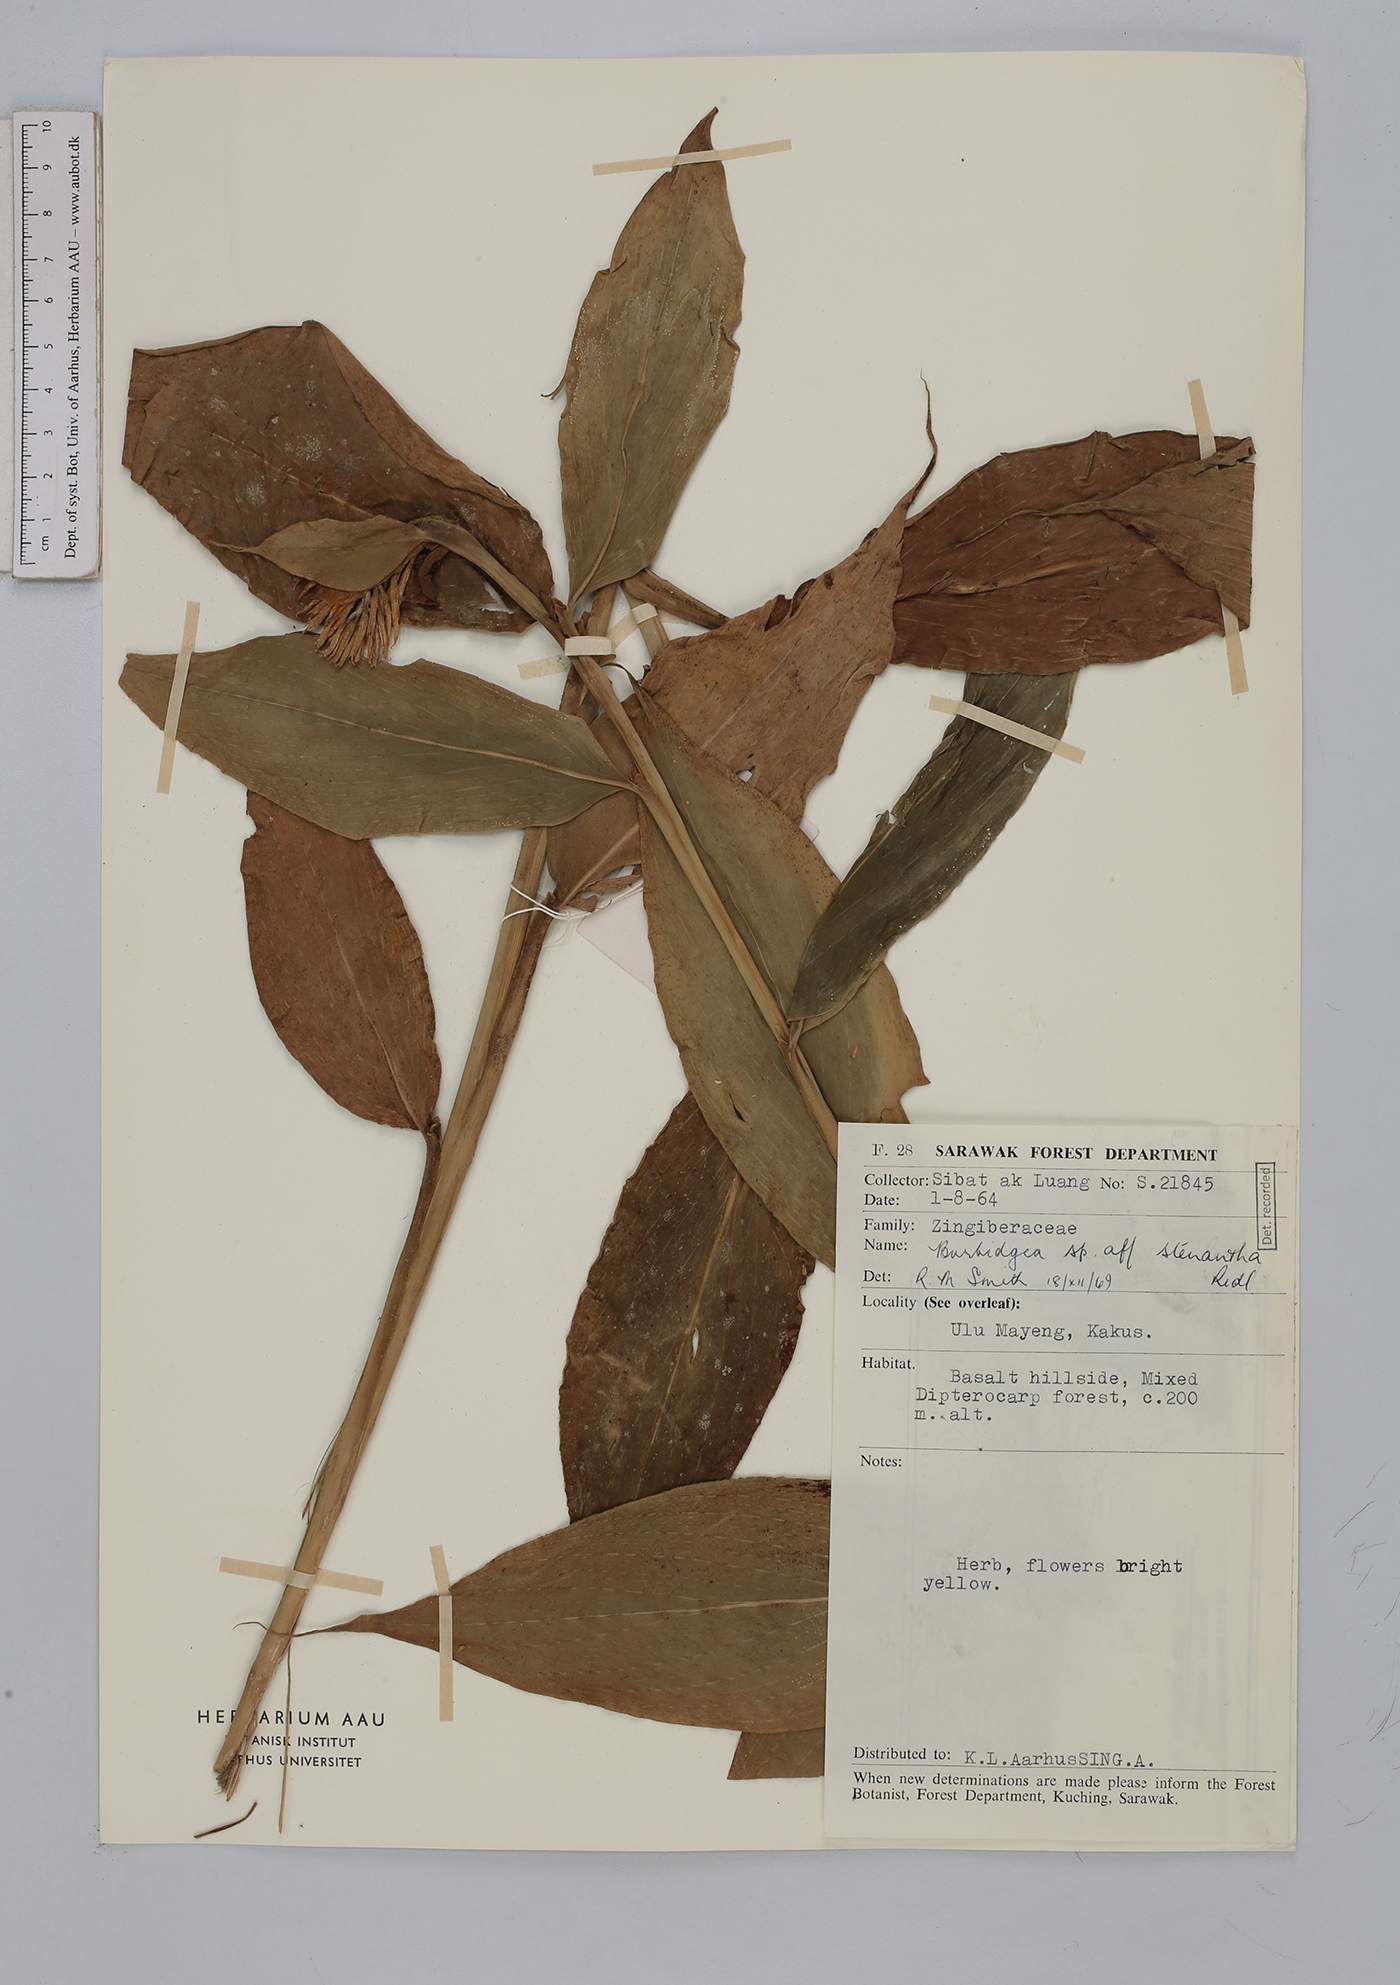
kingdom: Plantae
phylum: Tracheophyta
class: Liliopsida
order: Zingiberales
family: Zingiberaceae
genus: Burbidgea
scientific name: Burbidgea stenantha
